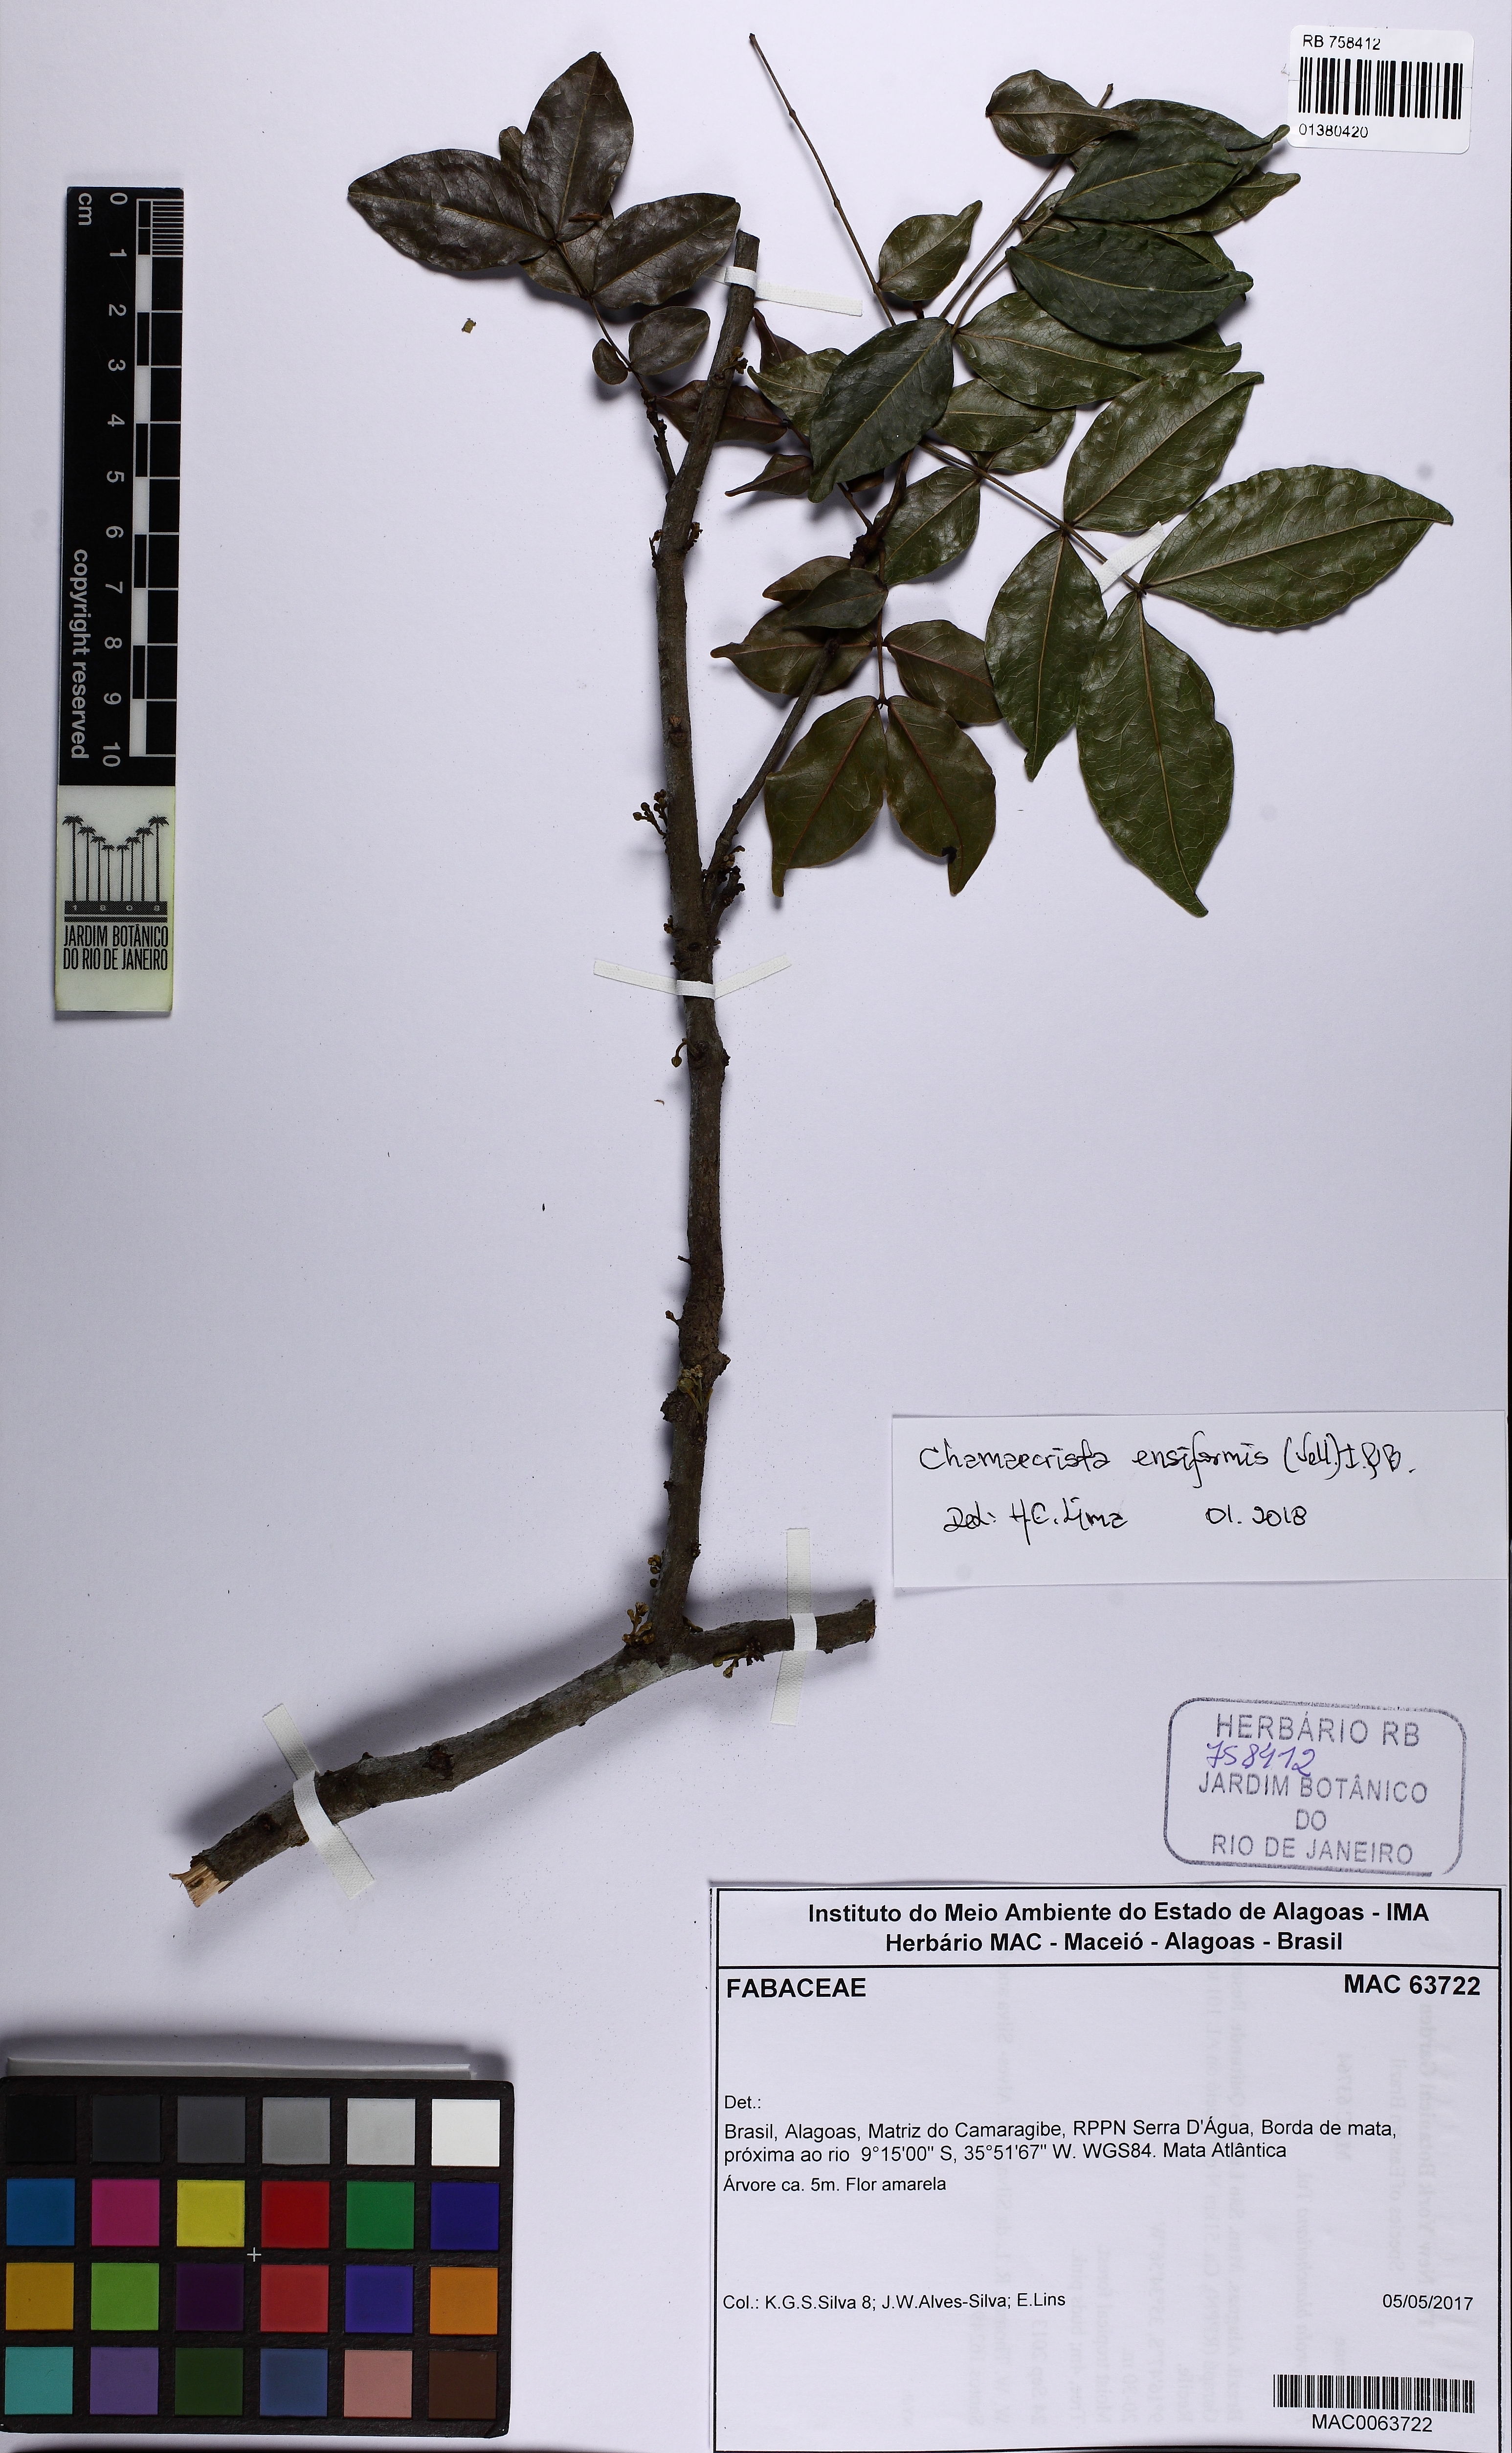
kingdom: Plantae
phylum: Tracheophyta
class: Magnoliopsida
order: Fabales
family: Fabaceae
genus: Chamaecrista
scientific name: Chamaecrista ensiformis
